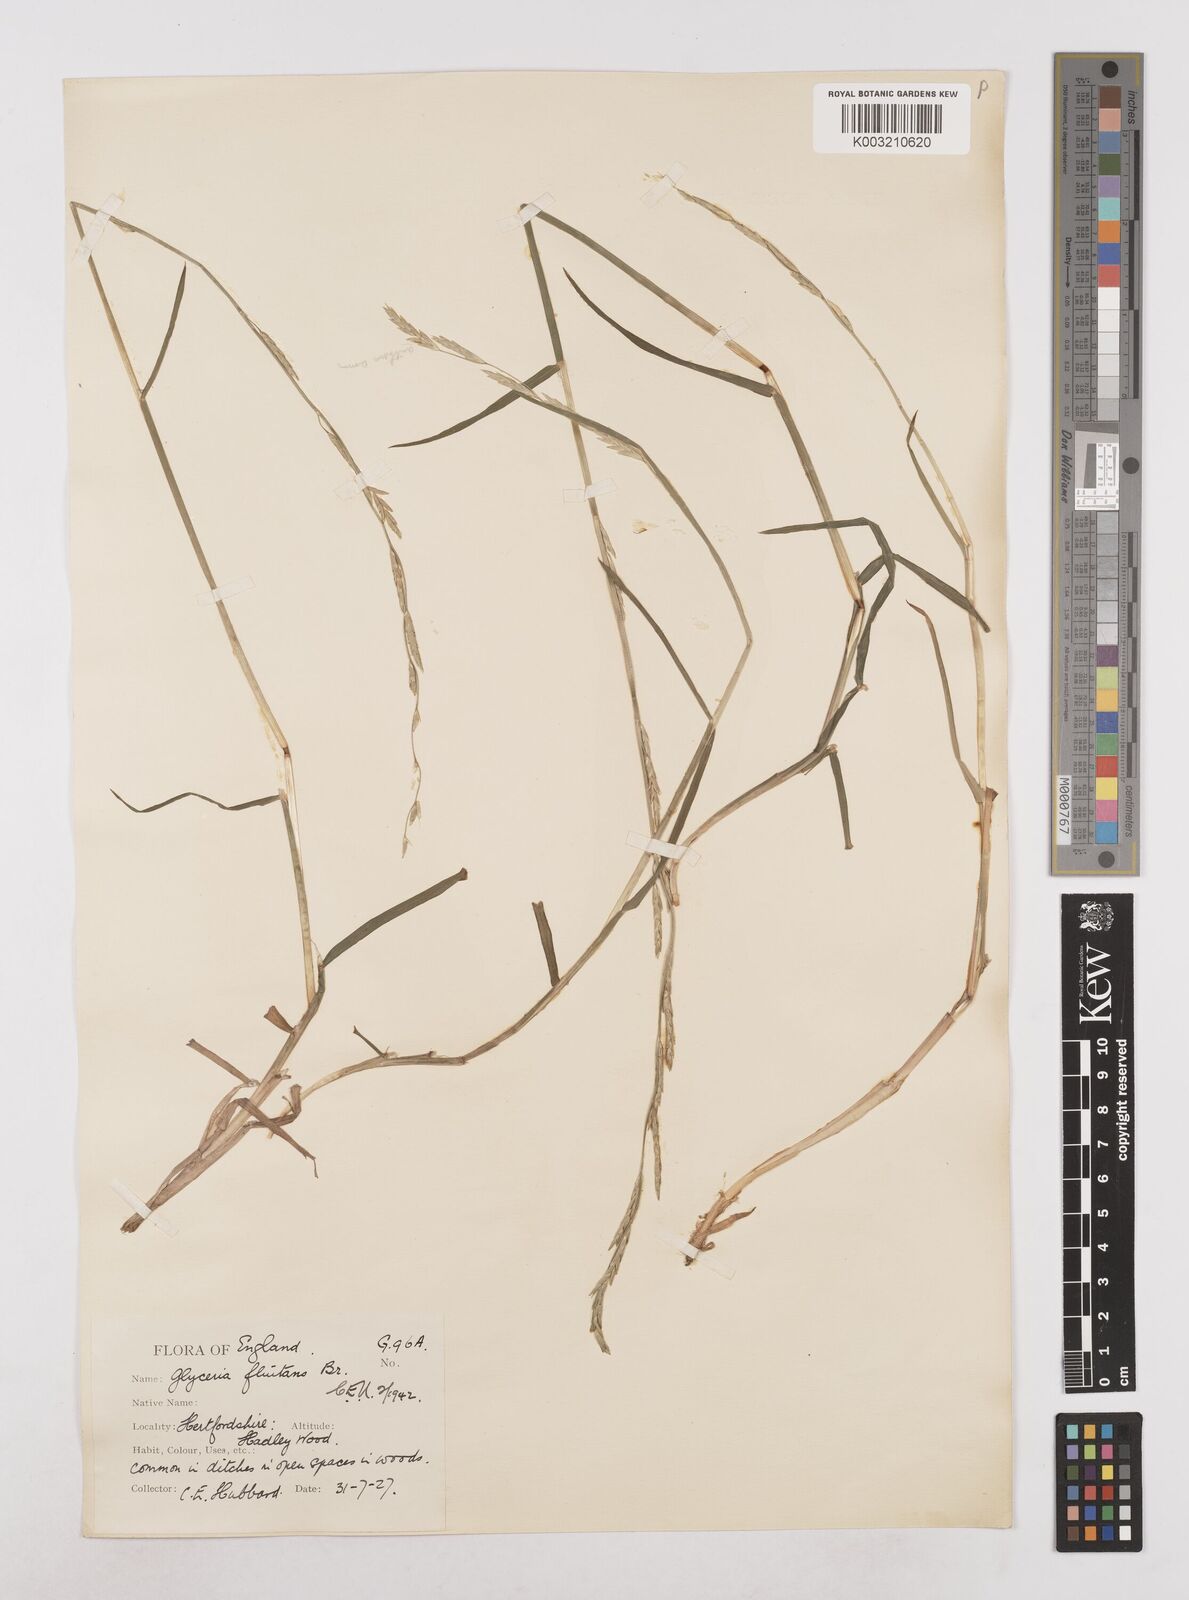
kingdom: Plantae
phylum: Tracheophyta
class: Liliopsida
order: Poales
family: Poaceae
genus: Glyceria
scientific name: Glyceria fluitans
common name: Floating sweet-grass
